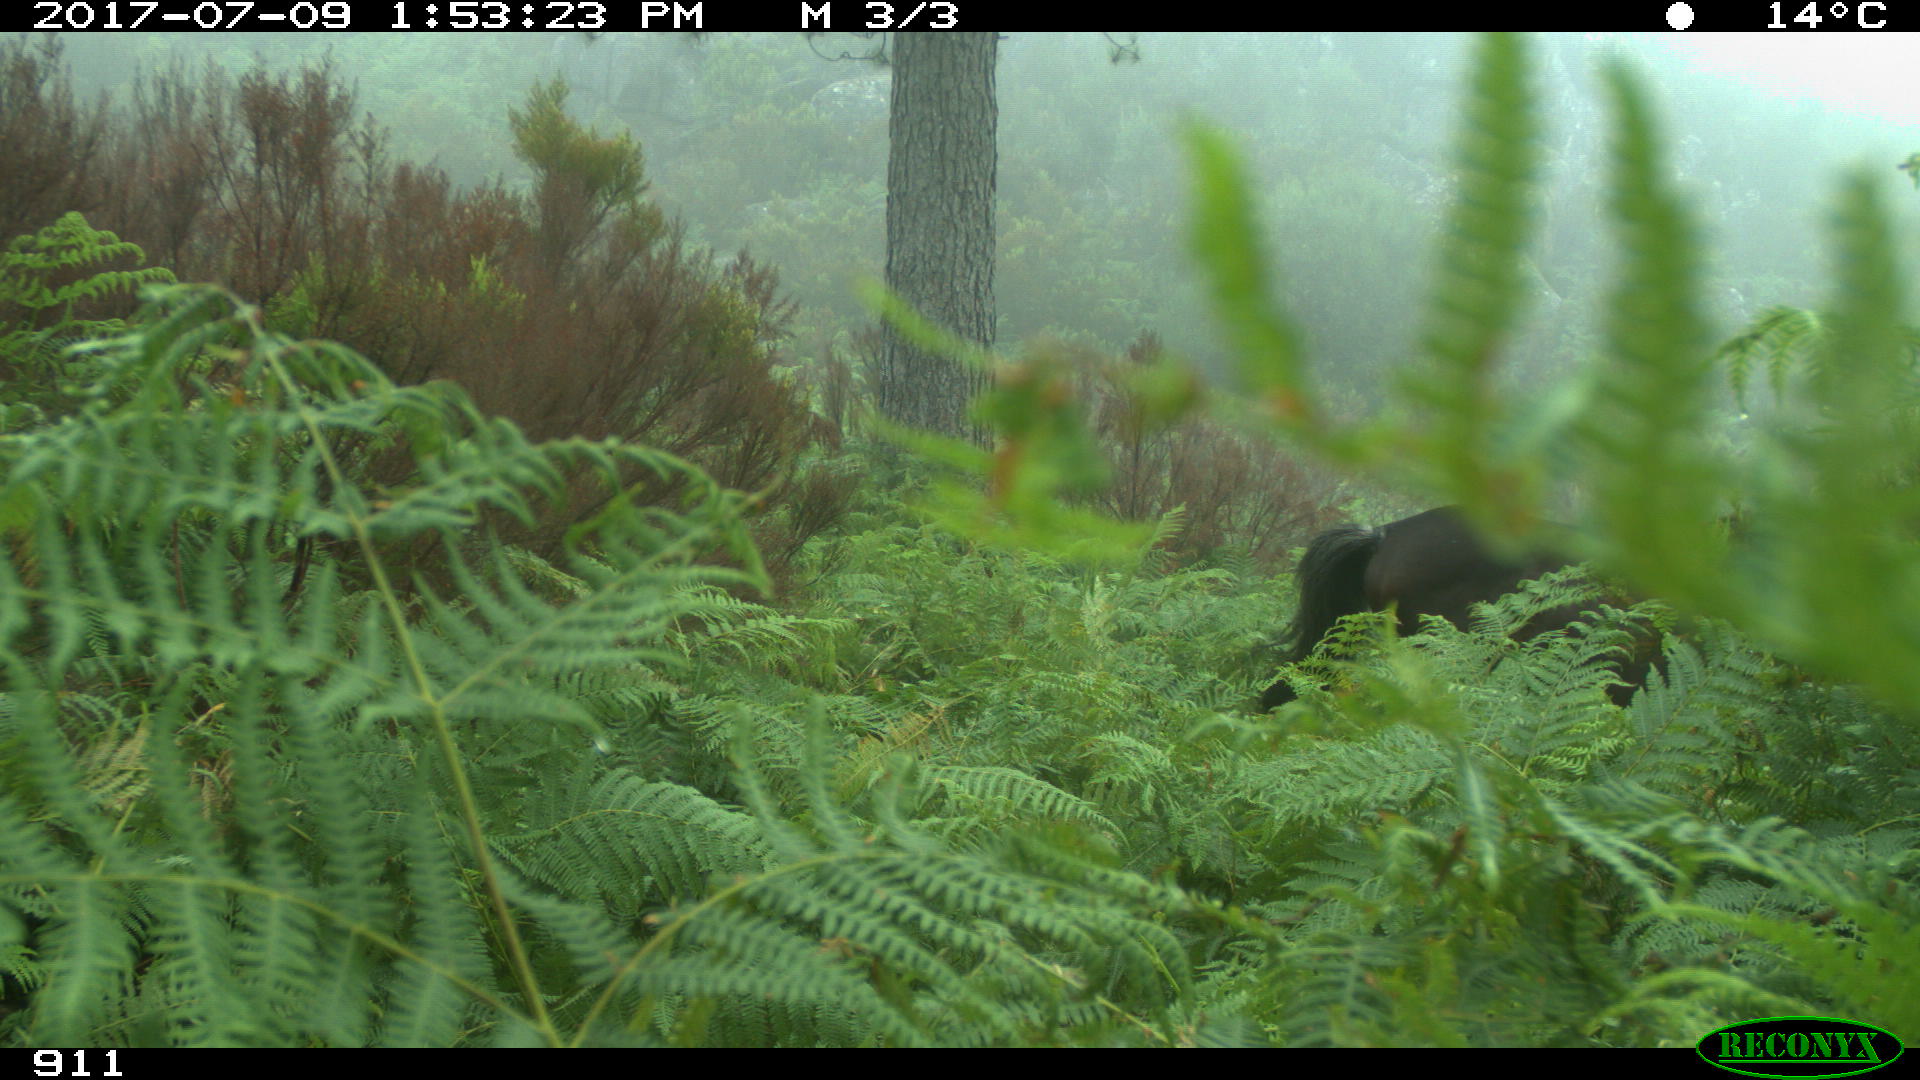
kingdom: Animalia
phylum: Chordata
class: Mammalia
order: Perissodactyla
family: Equidae
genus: Equus
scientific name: Equus caballus
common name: Horse
